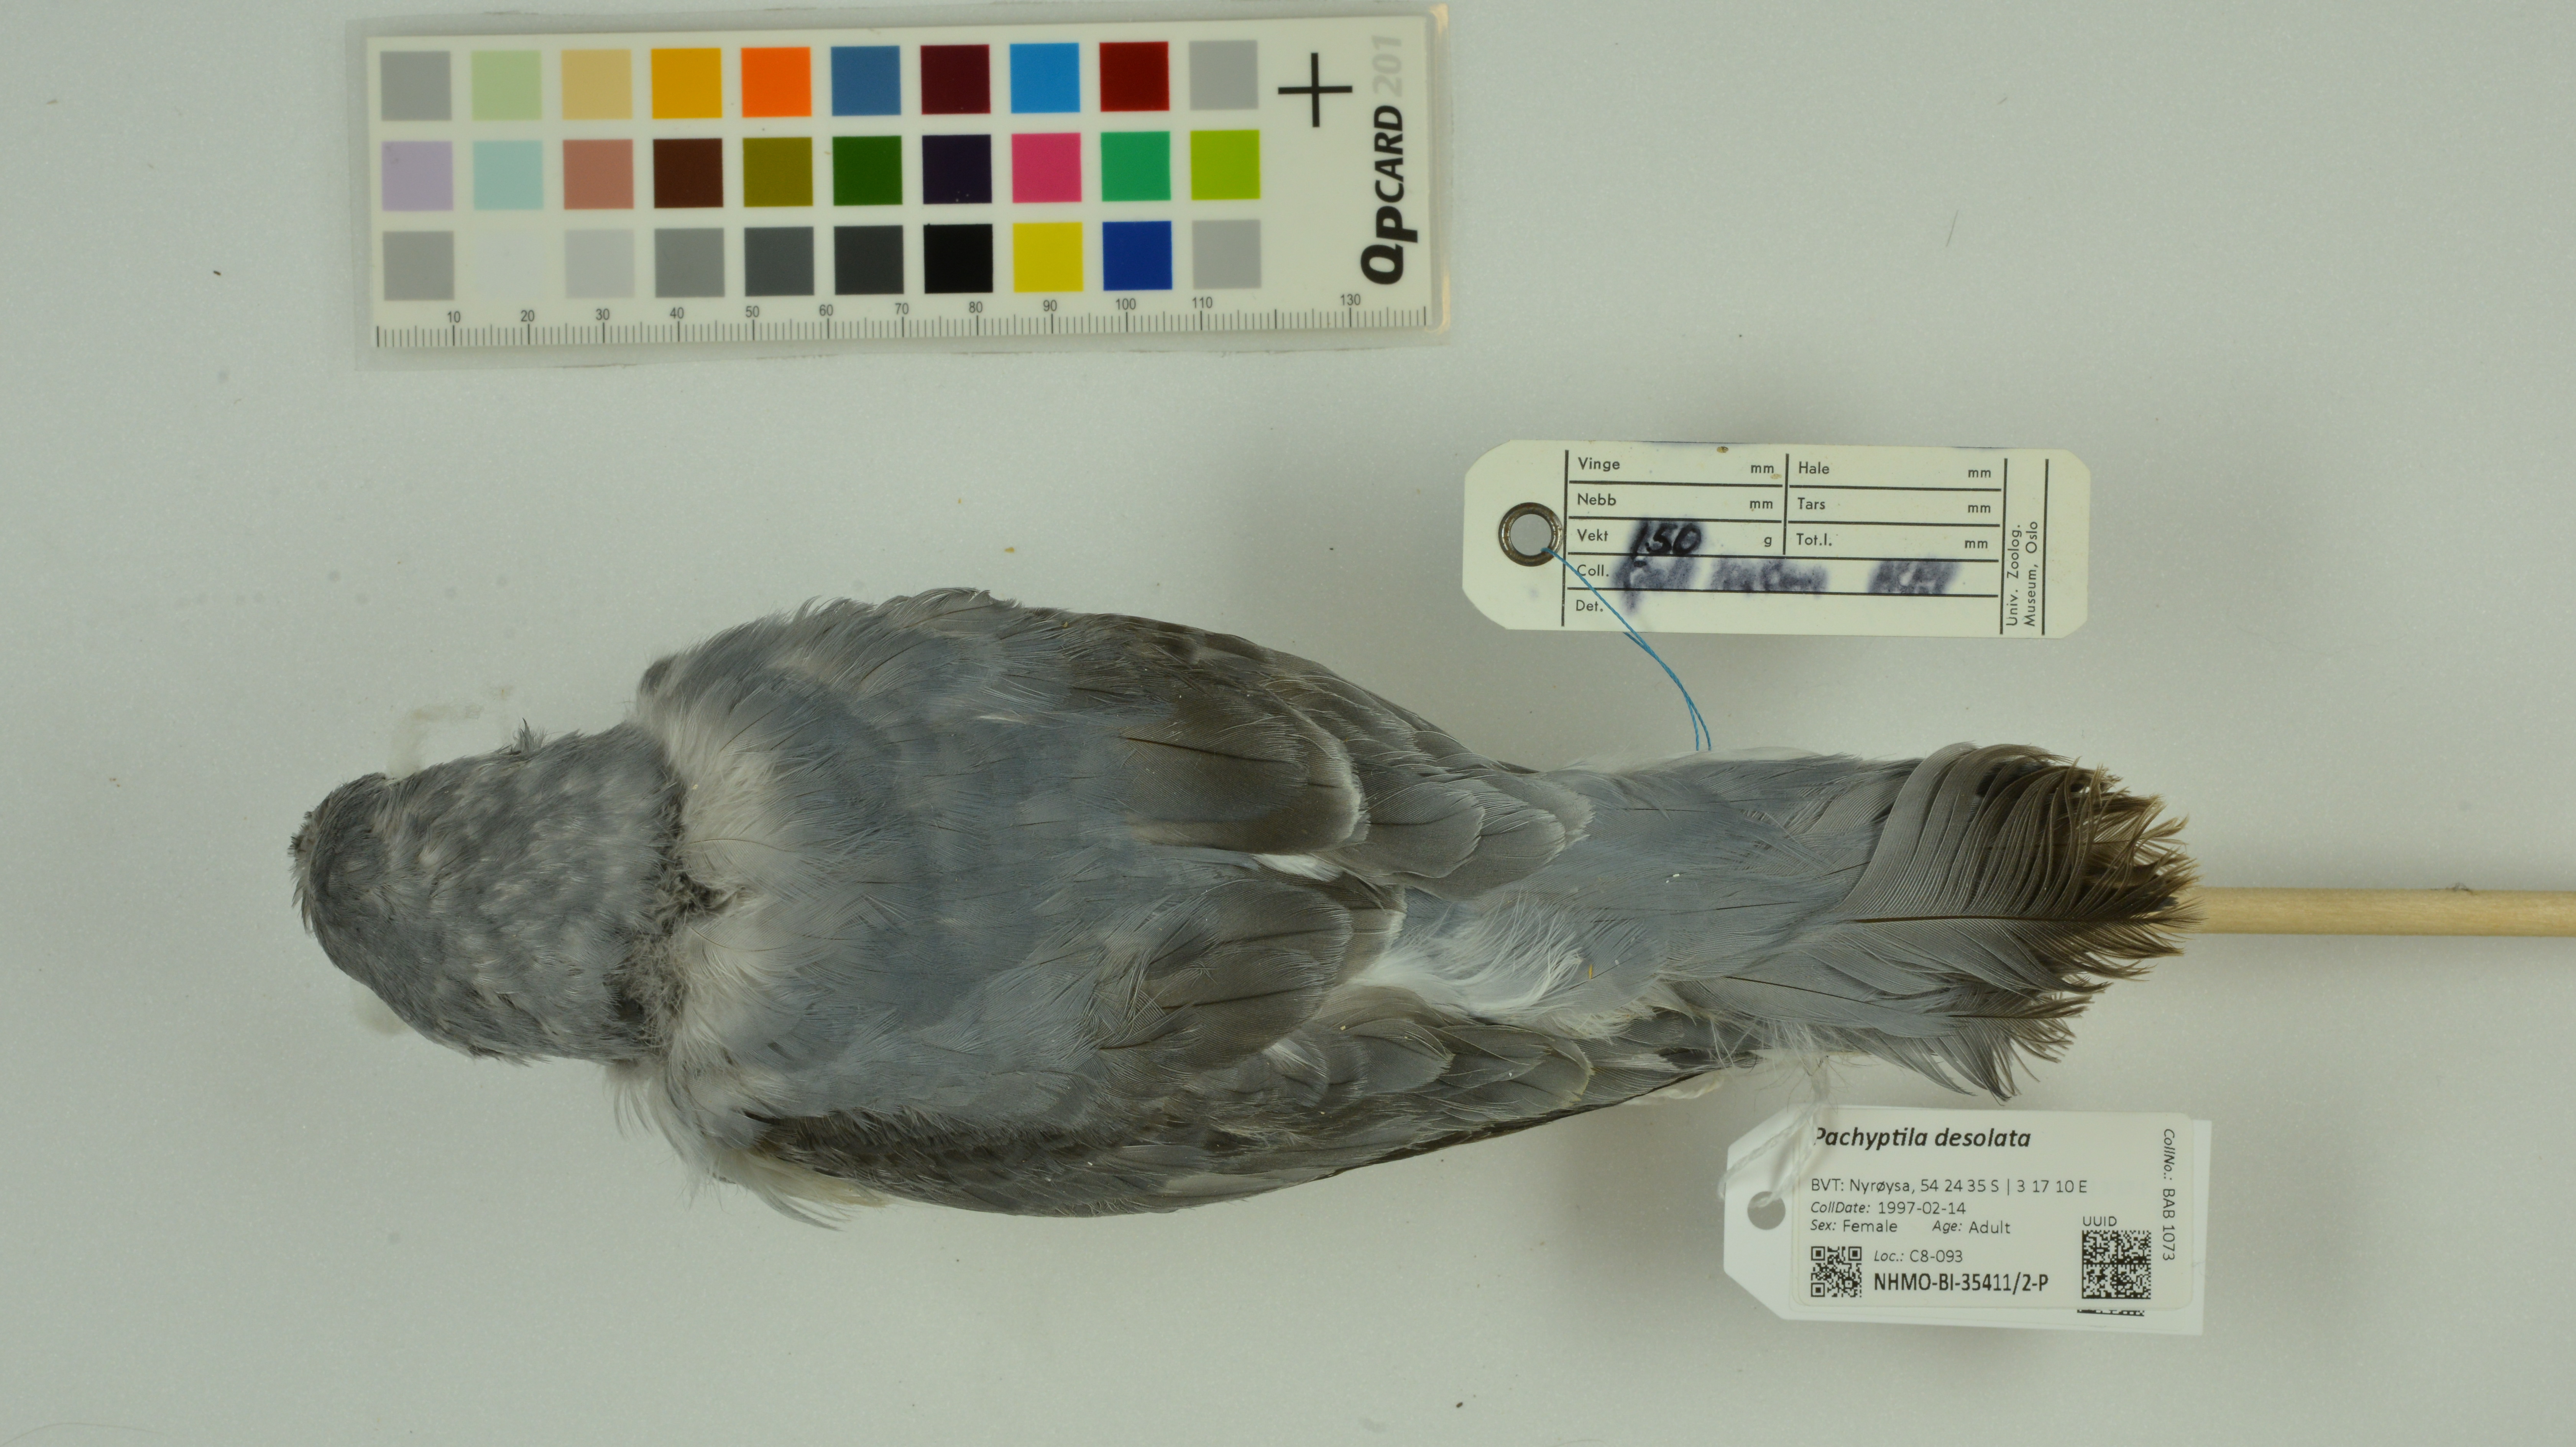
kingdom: Animalia
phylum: Chordata
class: Aves
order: Procellariiformes
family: Procellariidae
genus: Pachyptila
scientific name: Pachyptila desolata
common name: Antarctic prion
